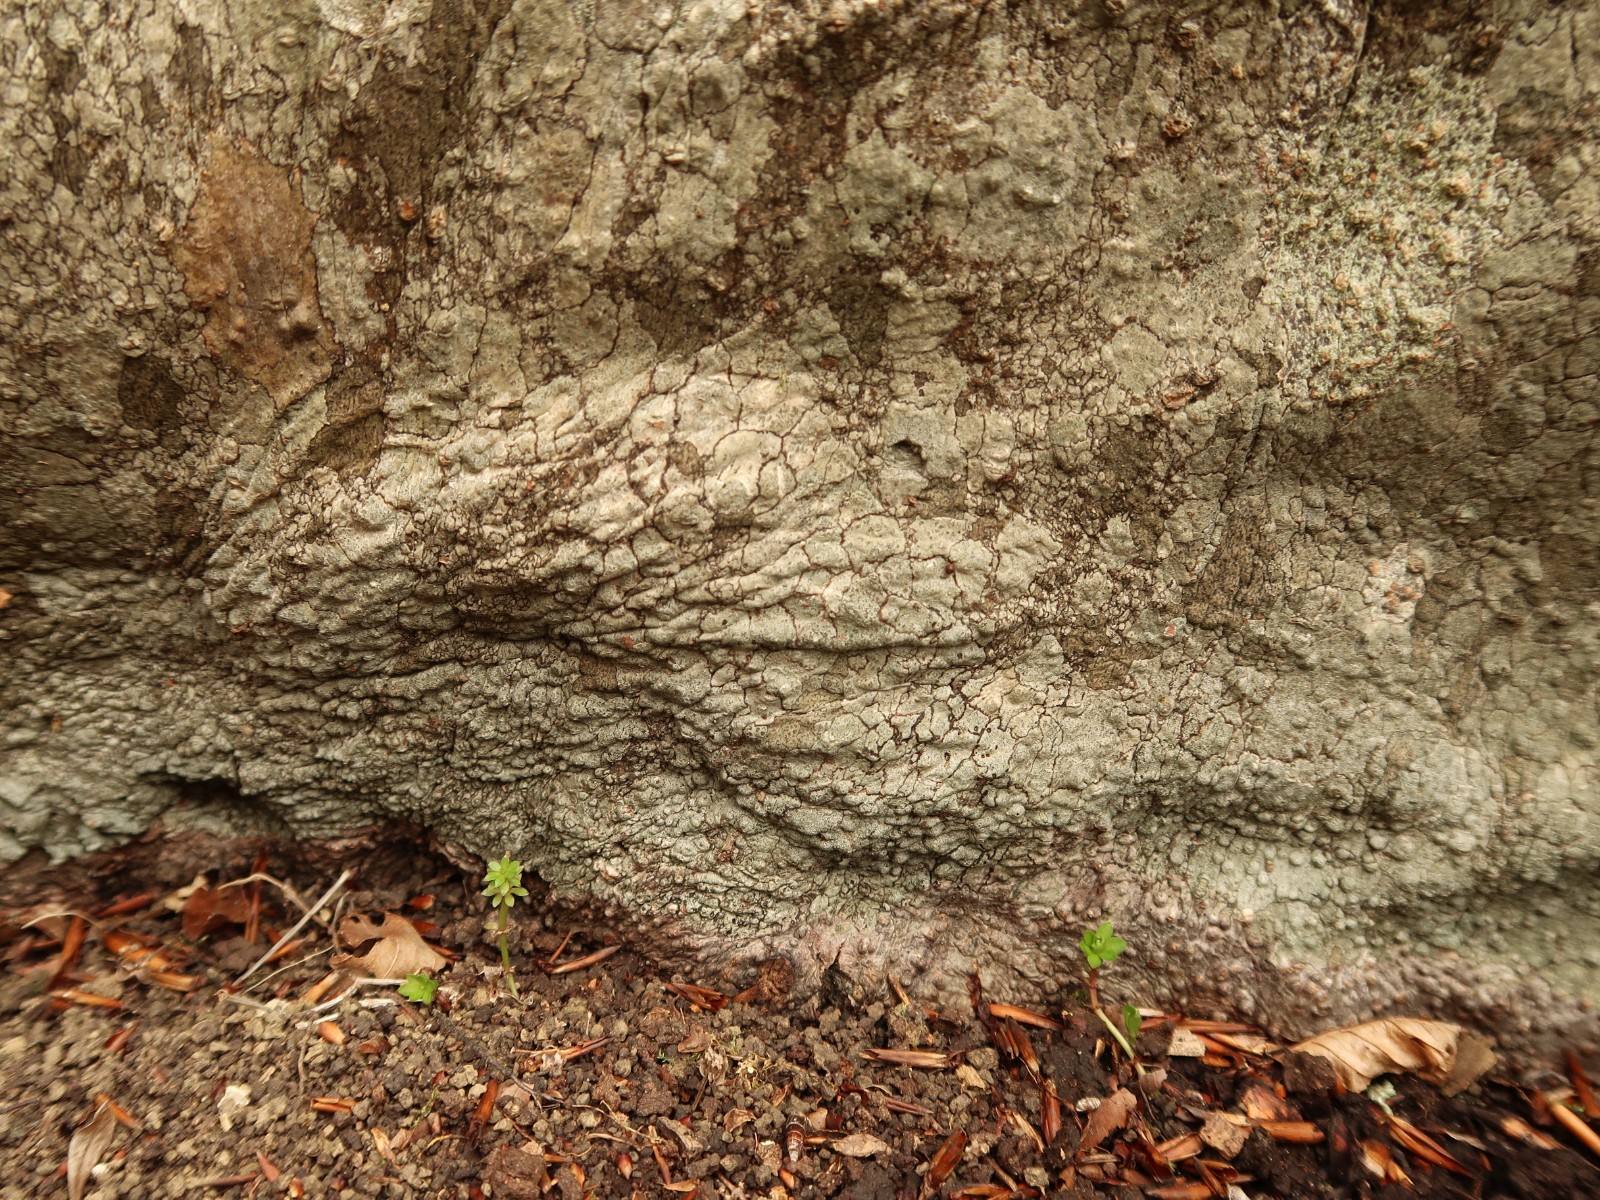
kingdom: Fungi
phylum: Ascomycota
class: Arthoniomycetes
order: Arthoniales
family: Roccellaceae
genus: Enterographa
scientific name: Enterographa crassa
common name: tyk prægelav
